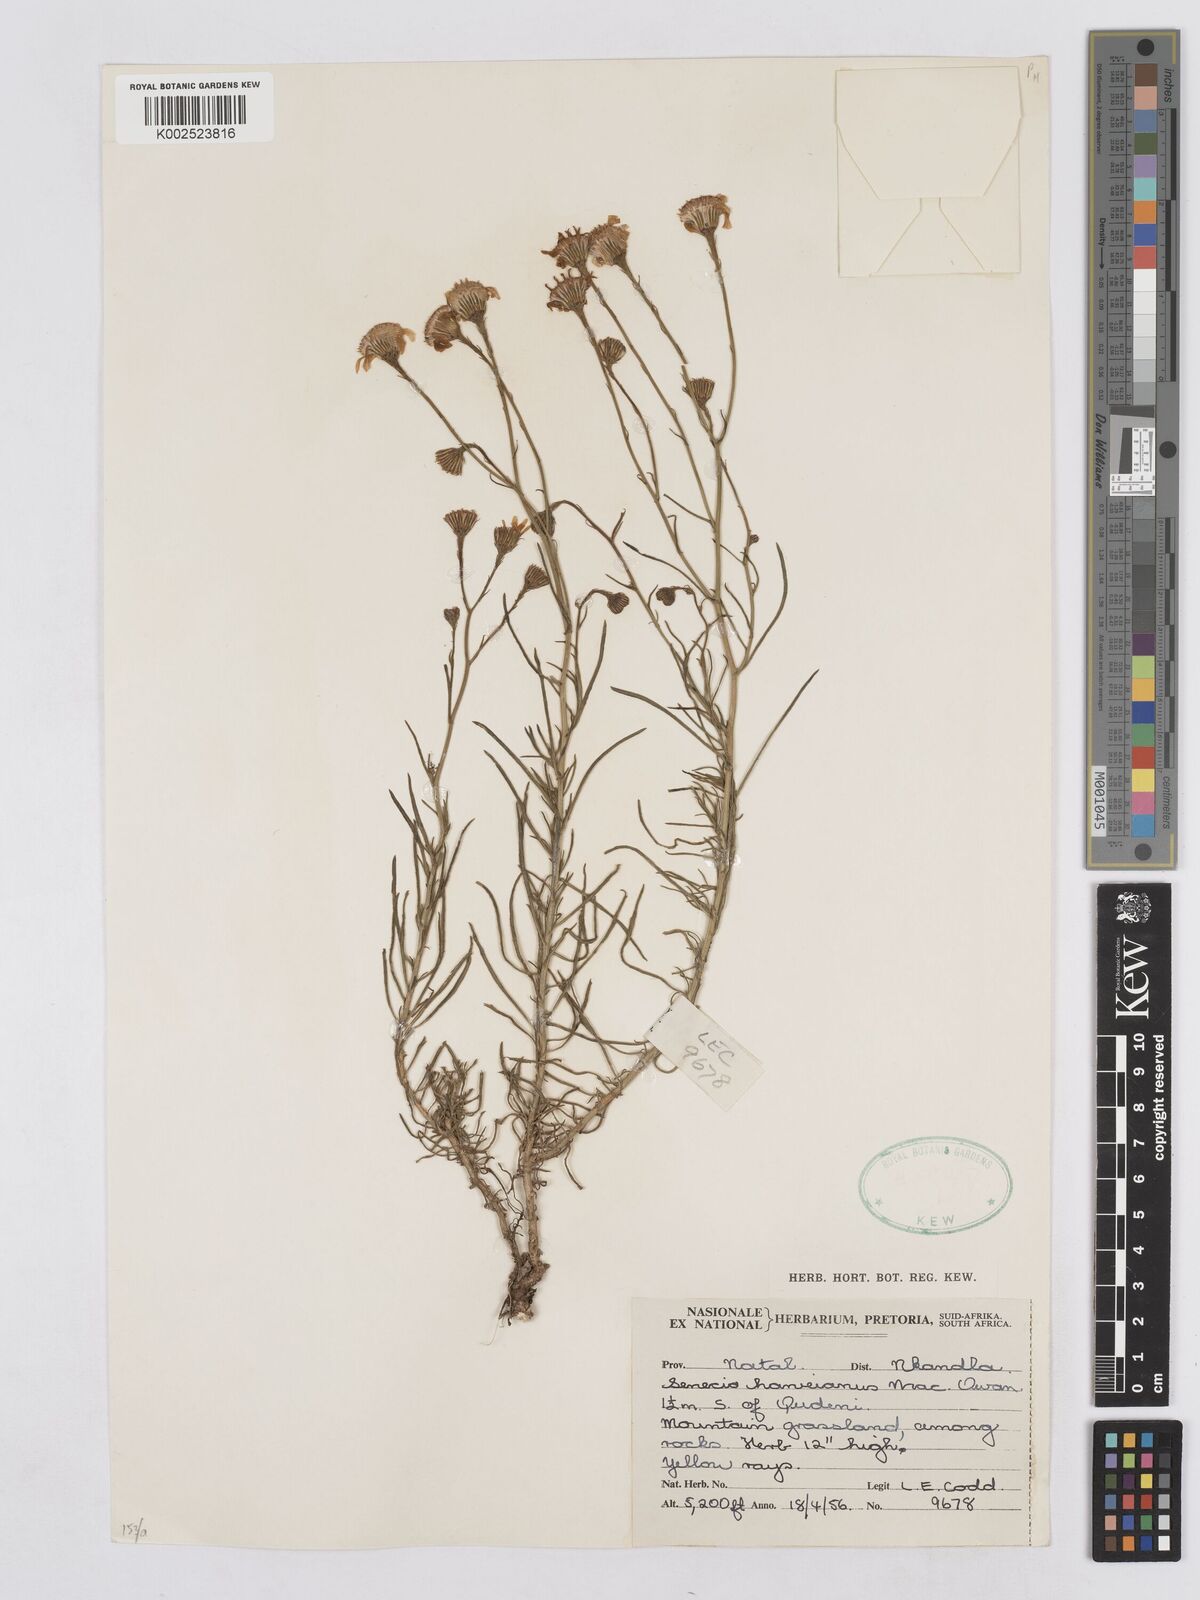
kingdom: Plantae
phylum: Tracheophyta
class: Magnoliopsida
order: Asterales
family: Asteraceae
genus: Senecio
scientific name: Senecio harveyanus
